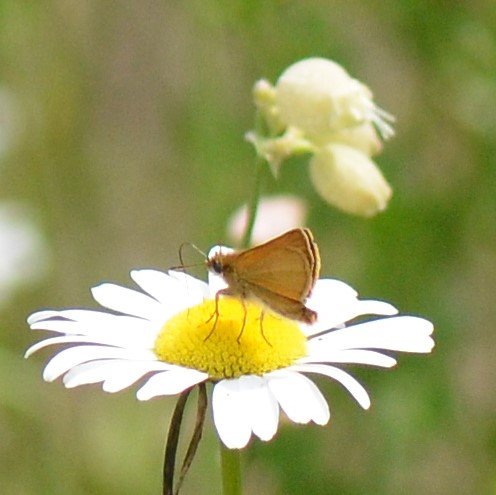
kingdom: Animalia
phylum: Arthropoda
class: Insecta
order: Lepidoptera
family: Hesperiidae
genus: Thymelicus
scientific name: Thymelicus lineola
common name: European Skipper
